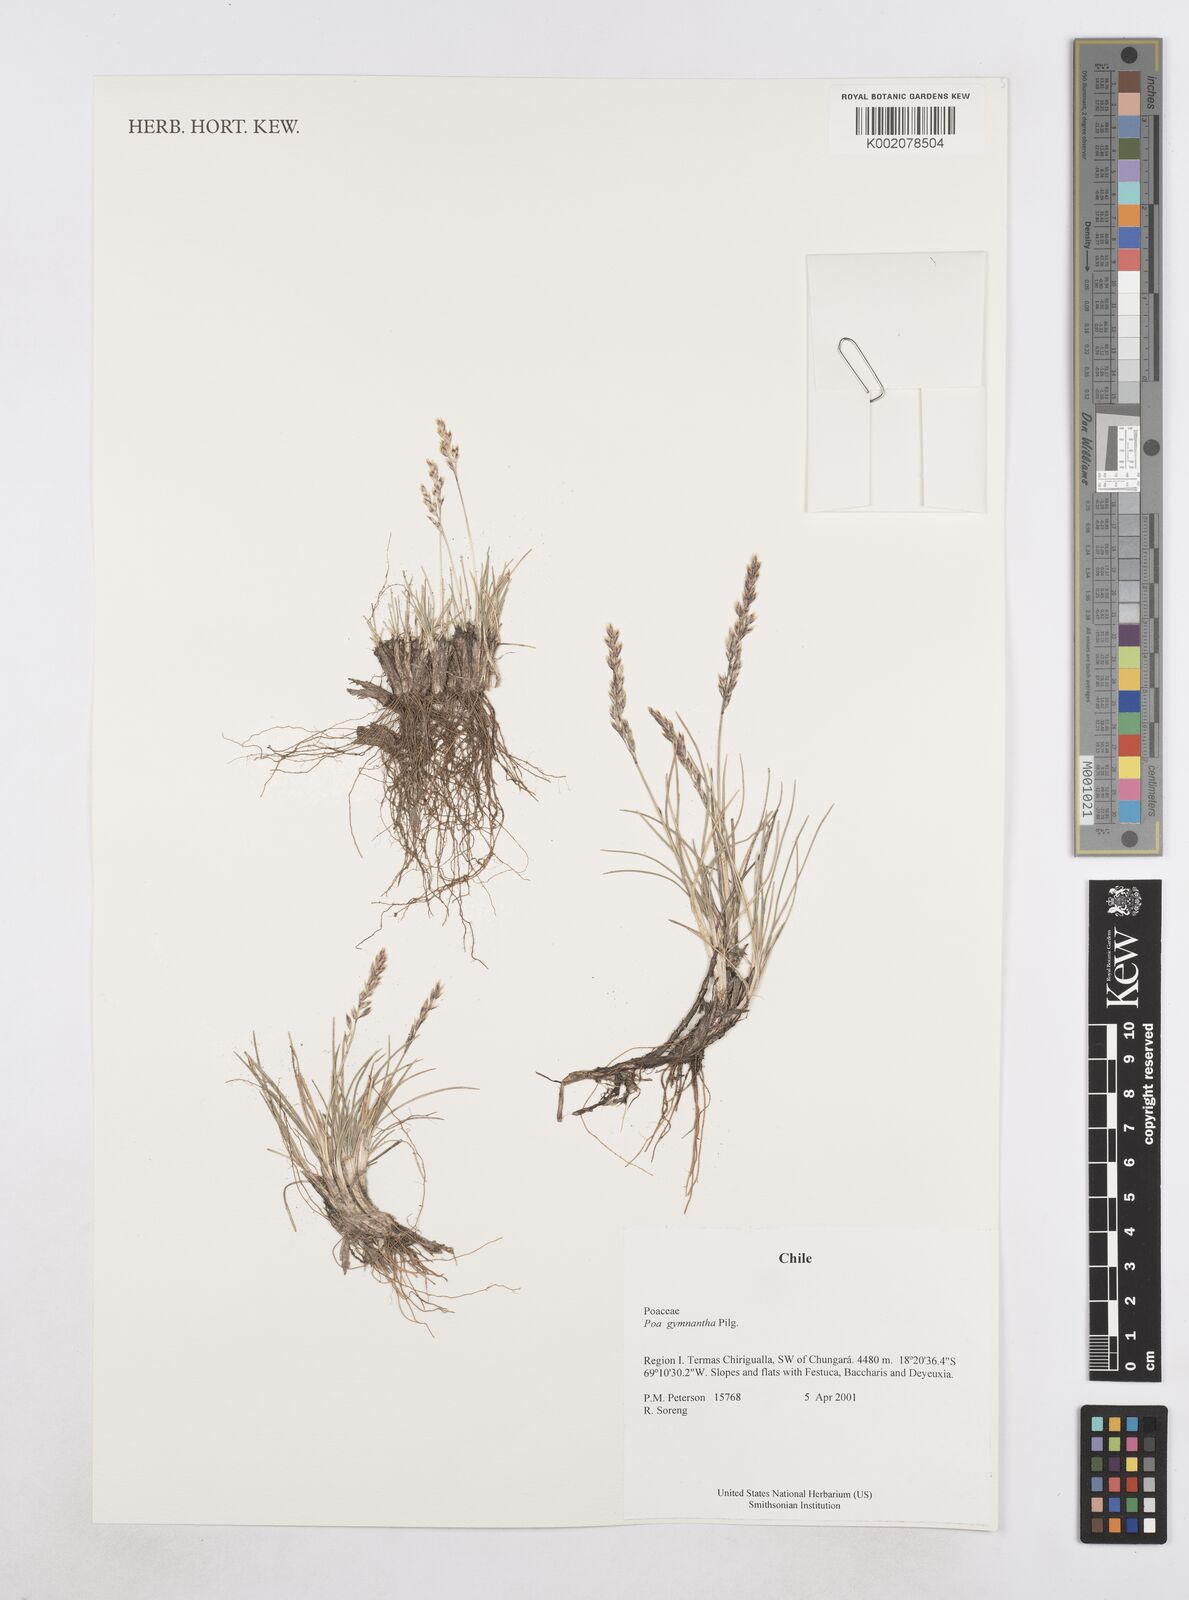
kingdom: Plantae
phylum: Tracheophyta
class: Liliopsida
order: Poales
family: Poaceae
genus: Poa
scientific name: Poa gymnantha
